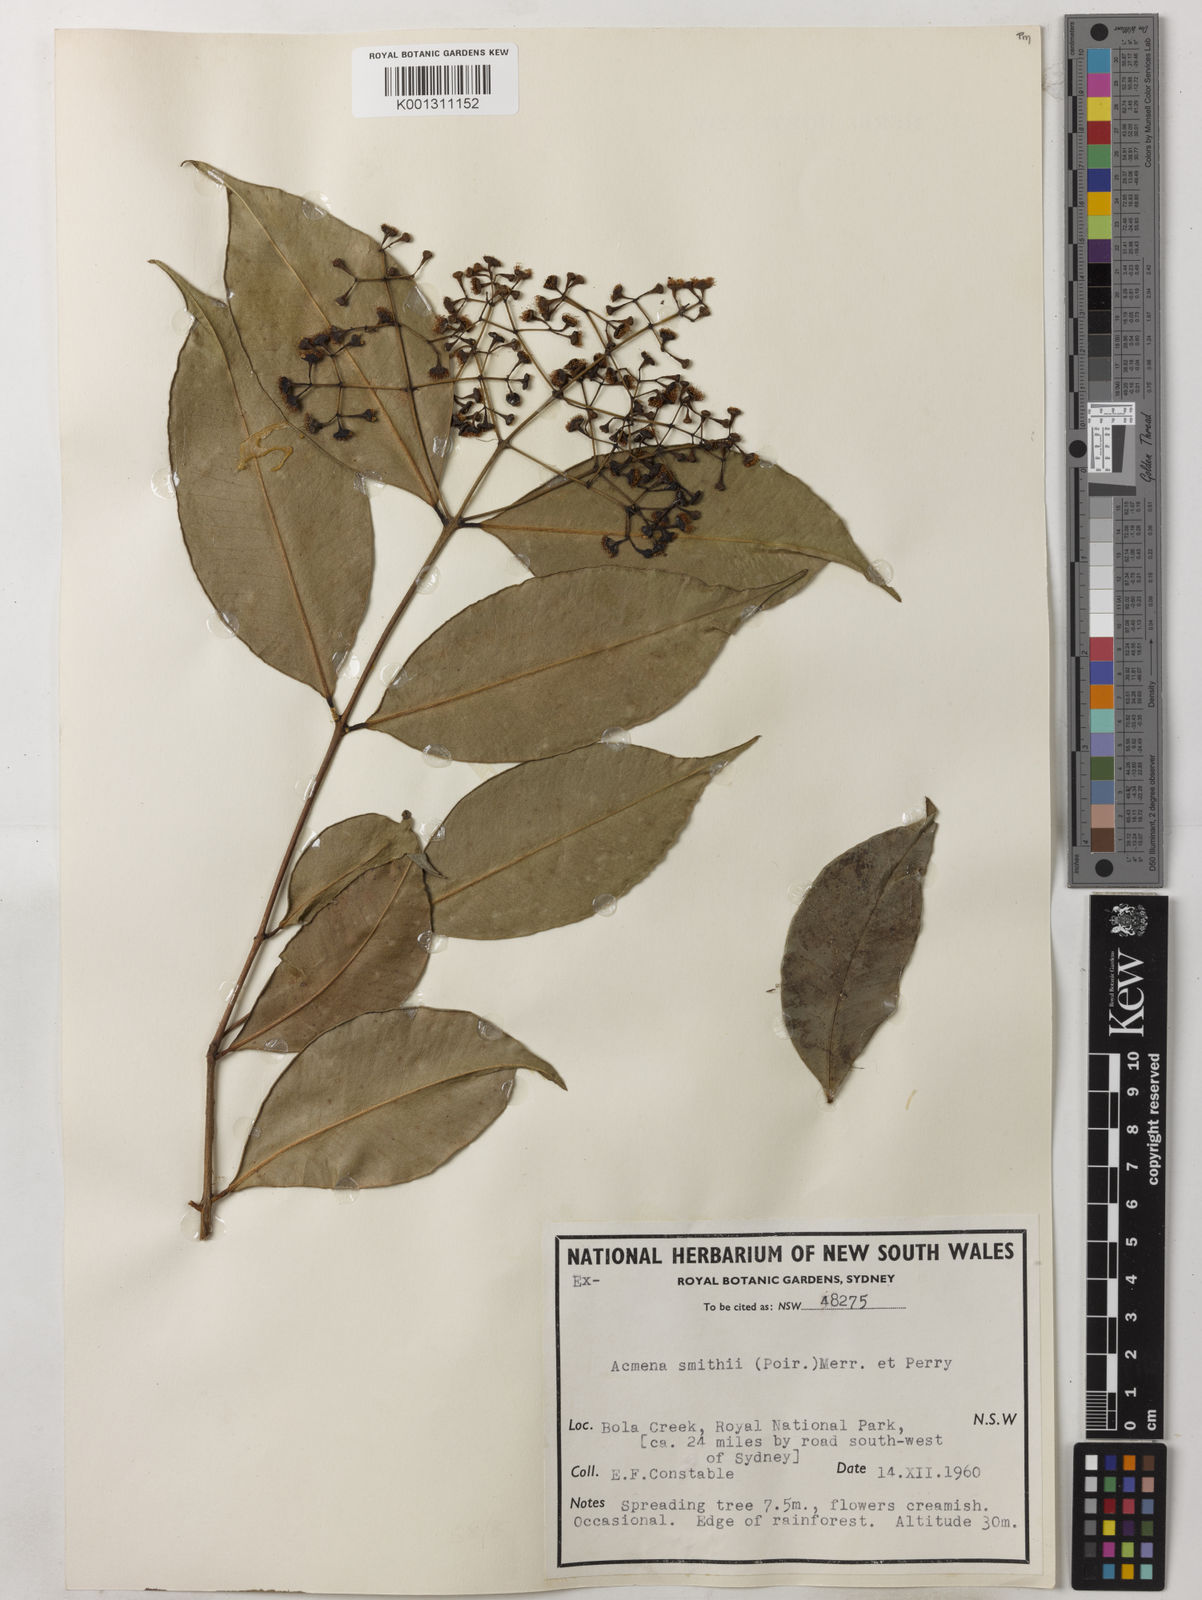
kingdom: Plantae
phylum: Tracheophyta
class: Magnoliopsida
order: Myrtales
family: Myrtaceae
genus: Syzygium
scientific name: Syzygium smithii
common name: Lilly-pilly
